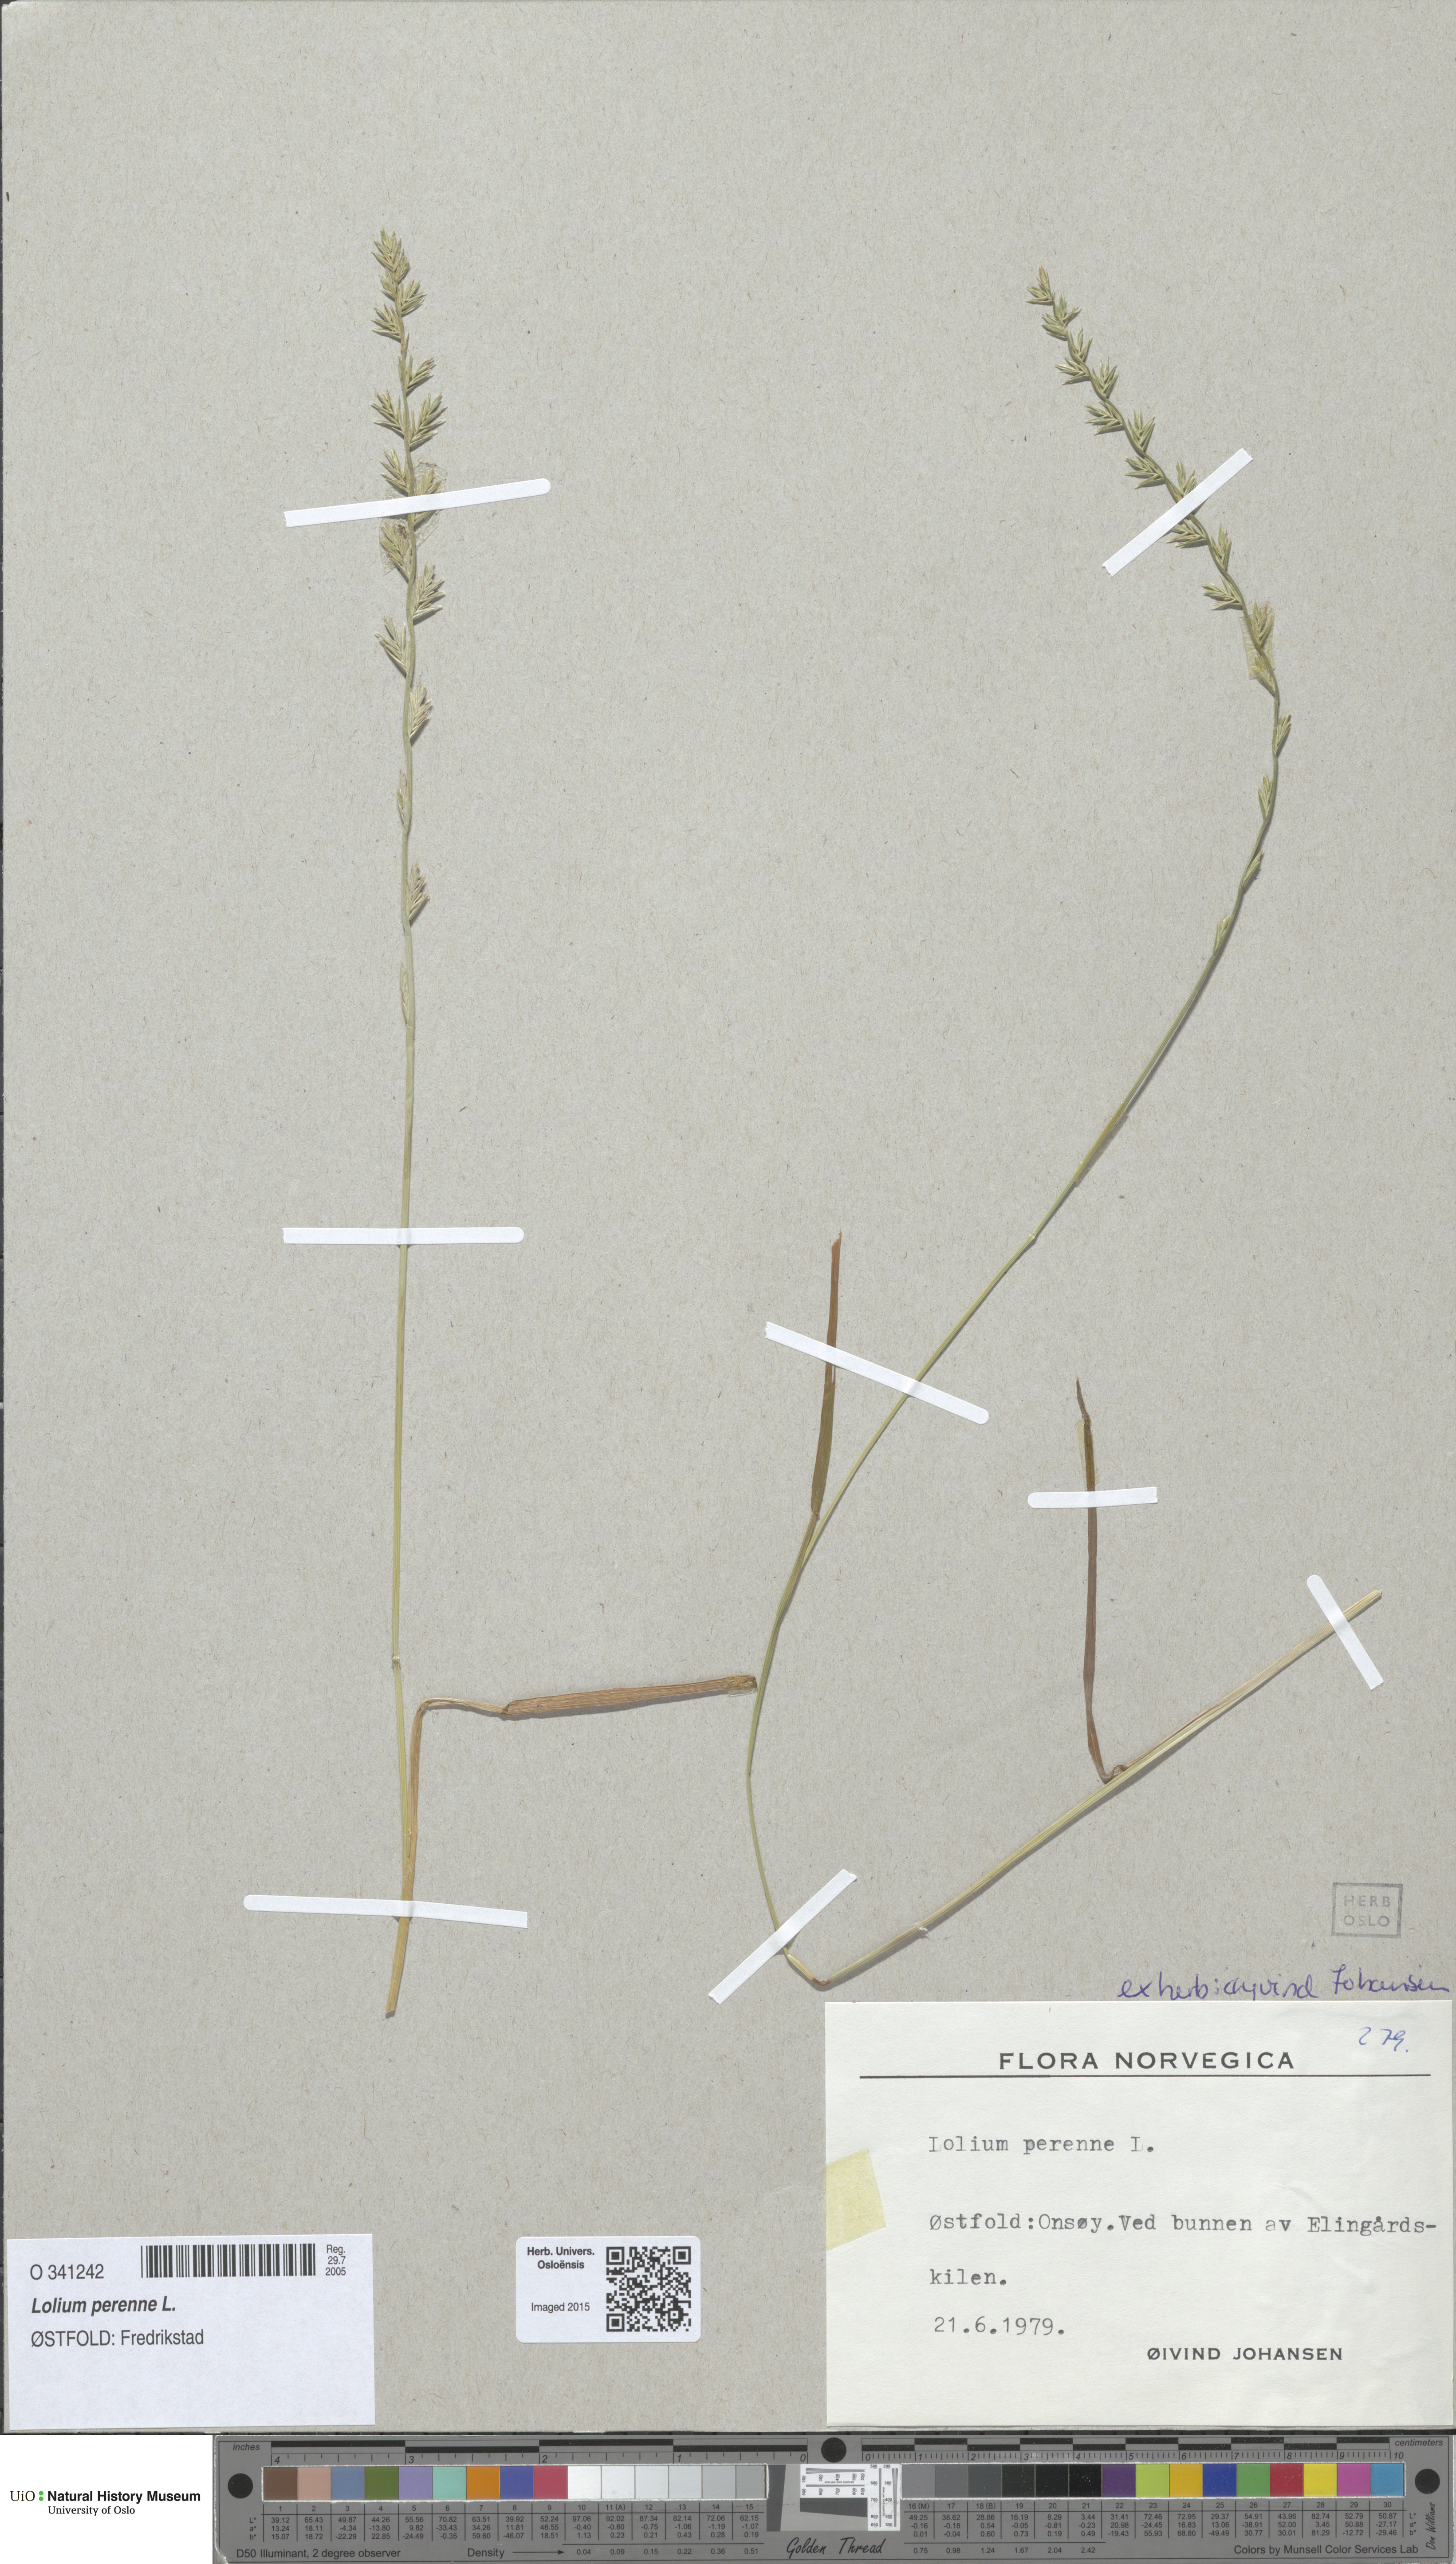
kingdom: Plantae
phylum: Tracheophyta
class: Liliopsida
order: Poales
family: Poaceae
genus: Lolium
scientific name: Lolium perenne
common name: Perennial ryegrass
